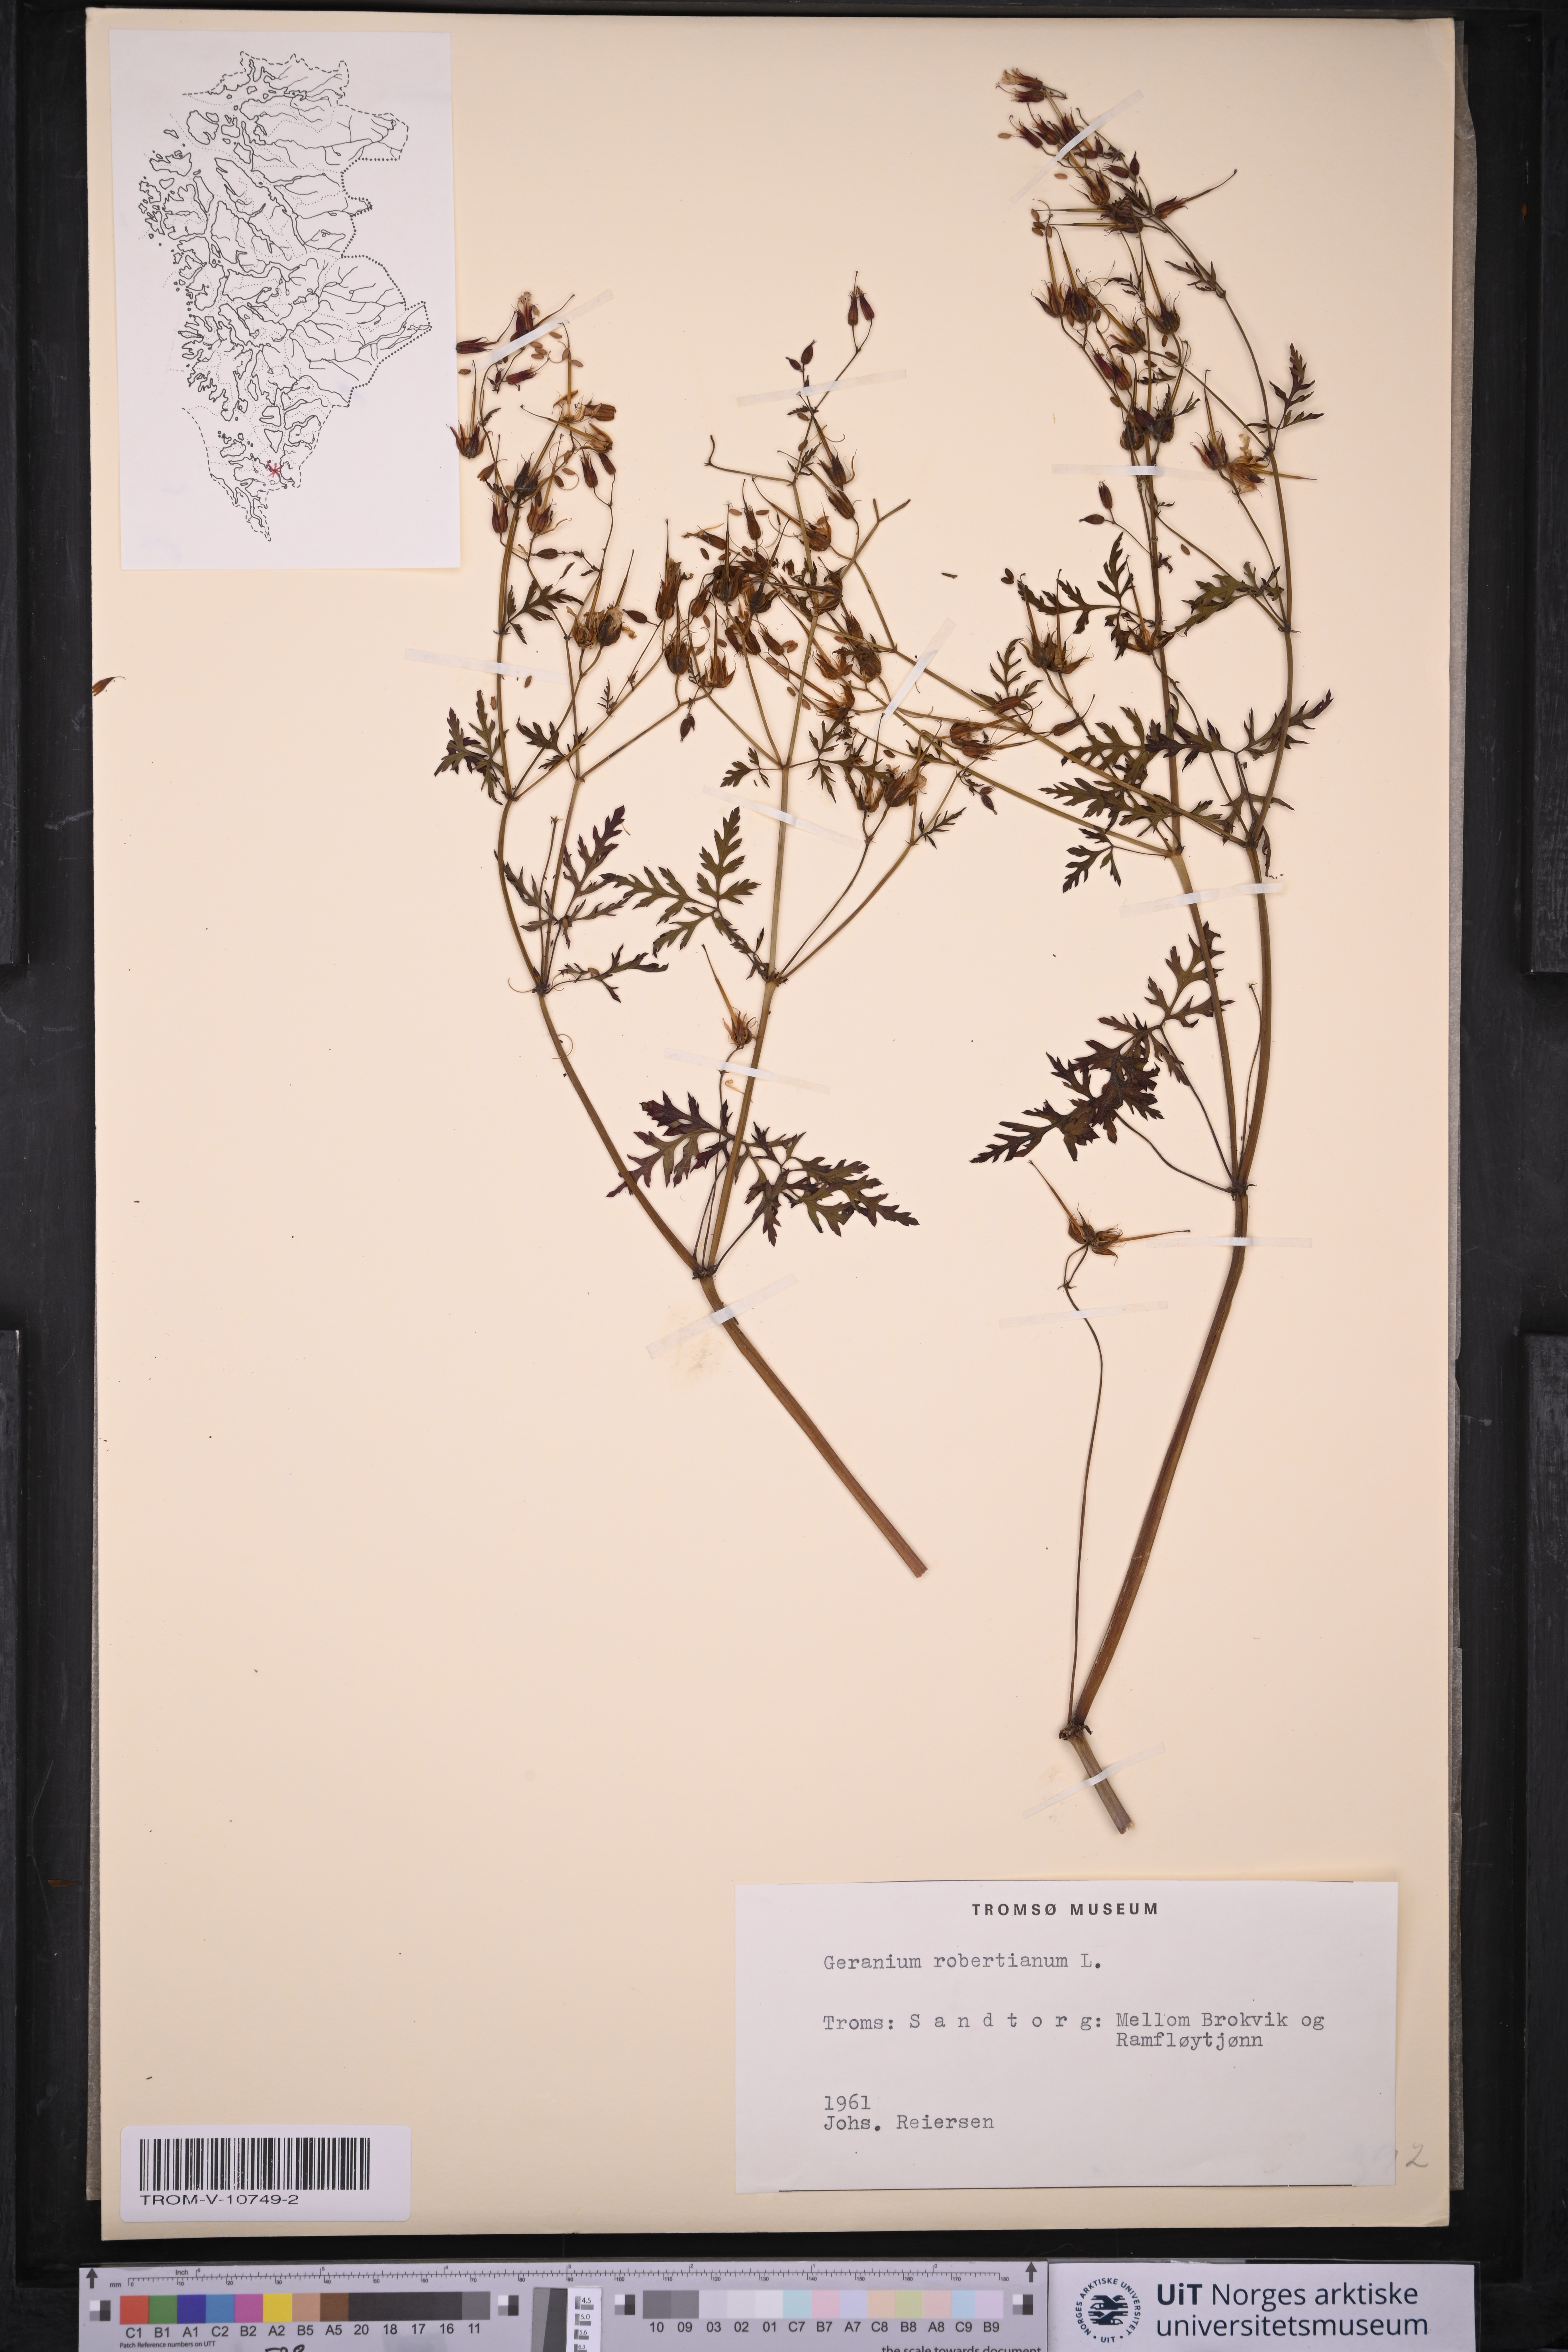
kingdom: Plantae
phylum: Tracheophyta
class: Magnoliopsida
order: Geraniales
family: Geraniaceae
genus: Geranium
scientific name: Geranium robertianum
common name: Herb-robert
